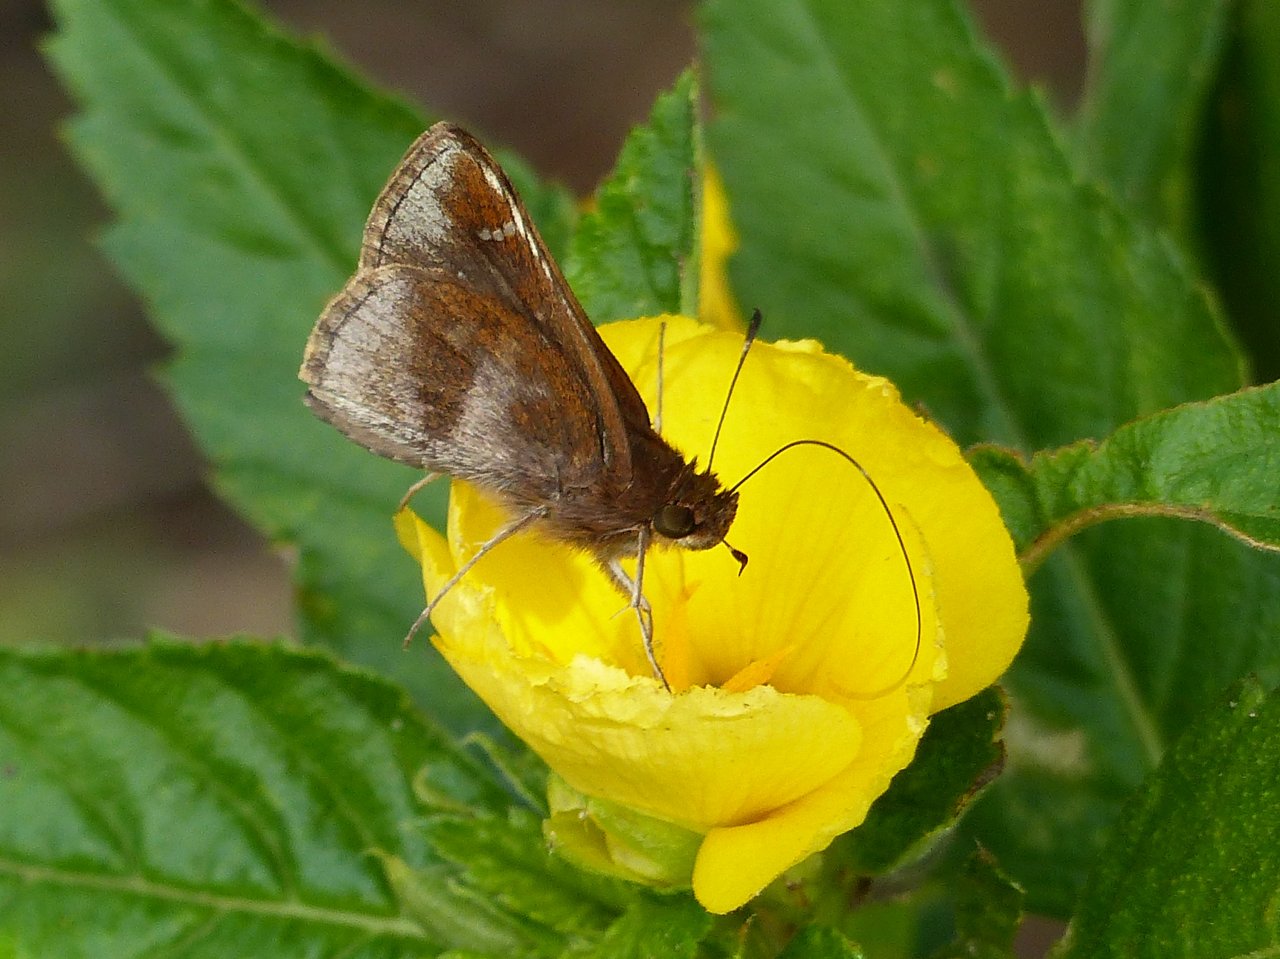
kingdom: Animalia
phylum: Arthropoda
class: Insecta
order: Lepidoptera
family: Hesperiidae
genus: Lerema
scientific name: Lerema accius
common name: Clouded Skipper
